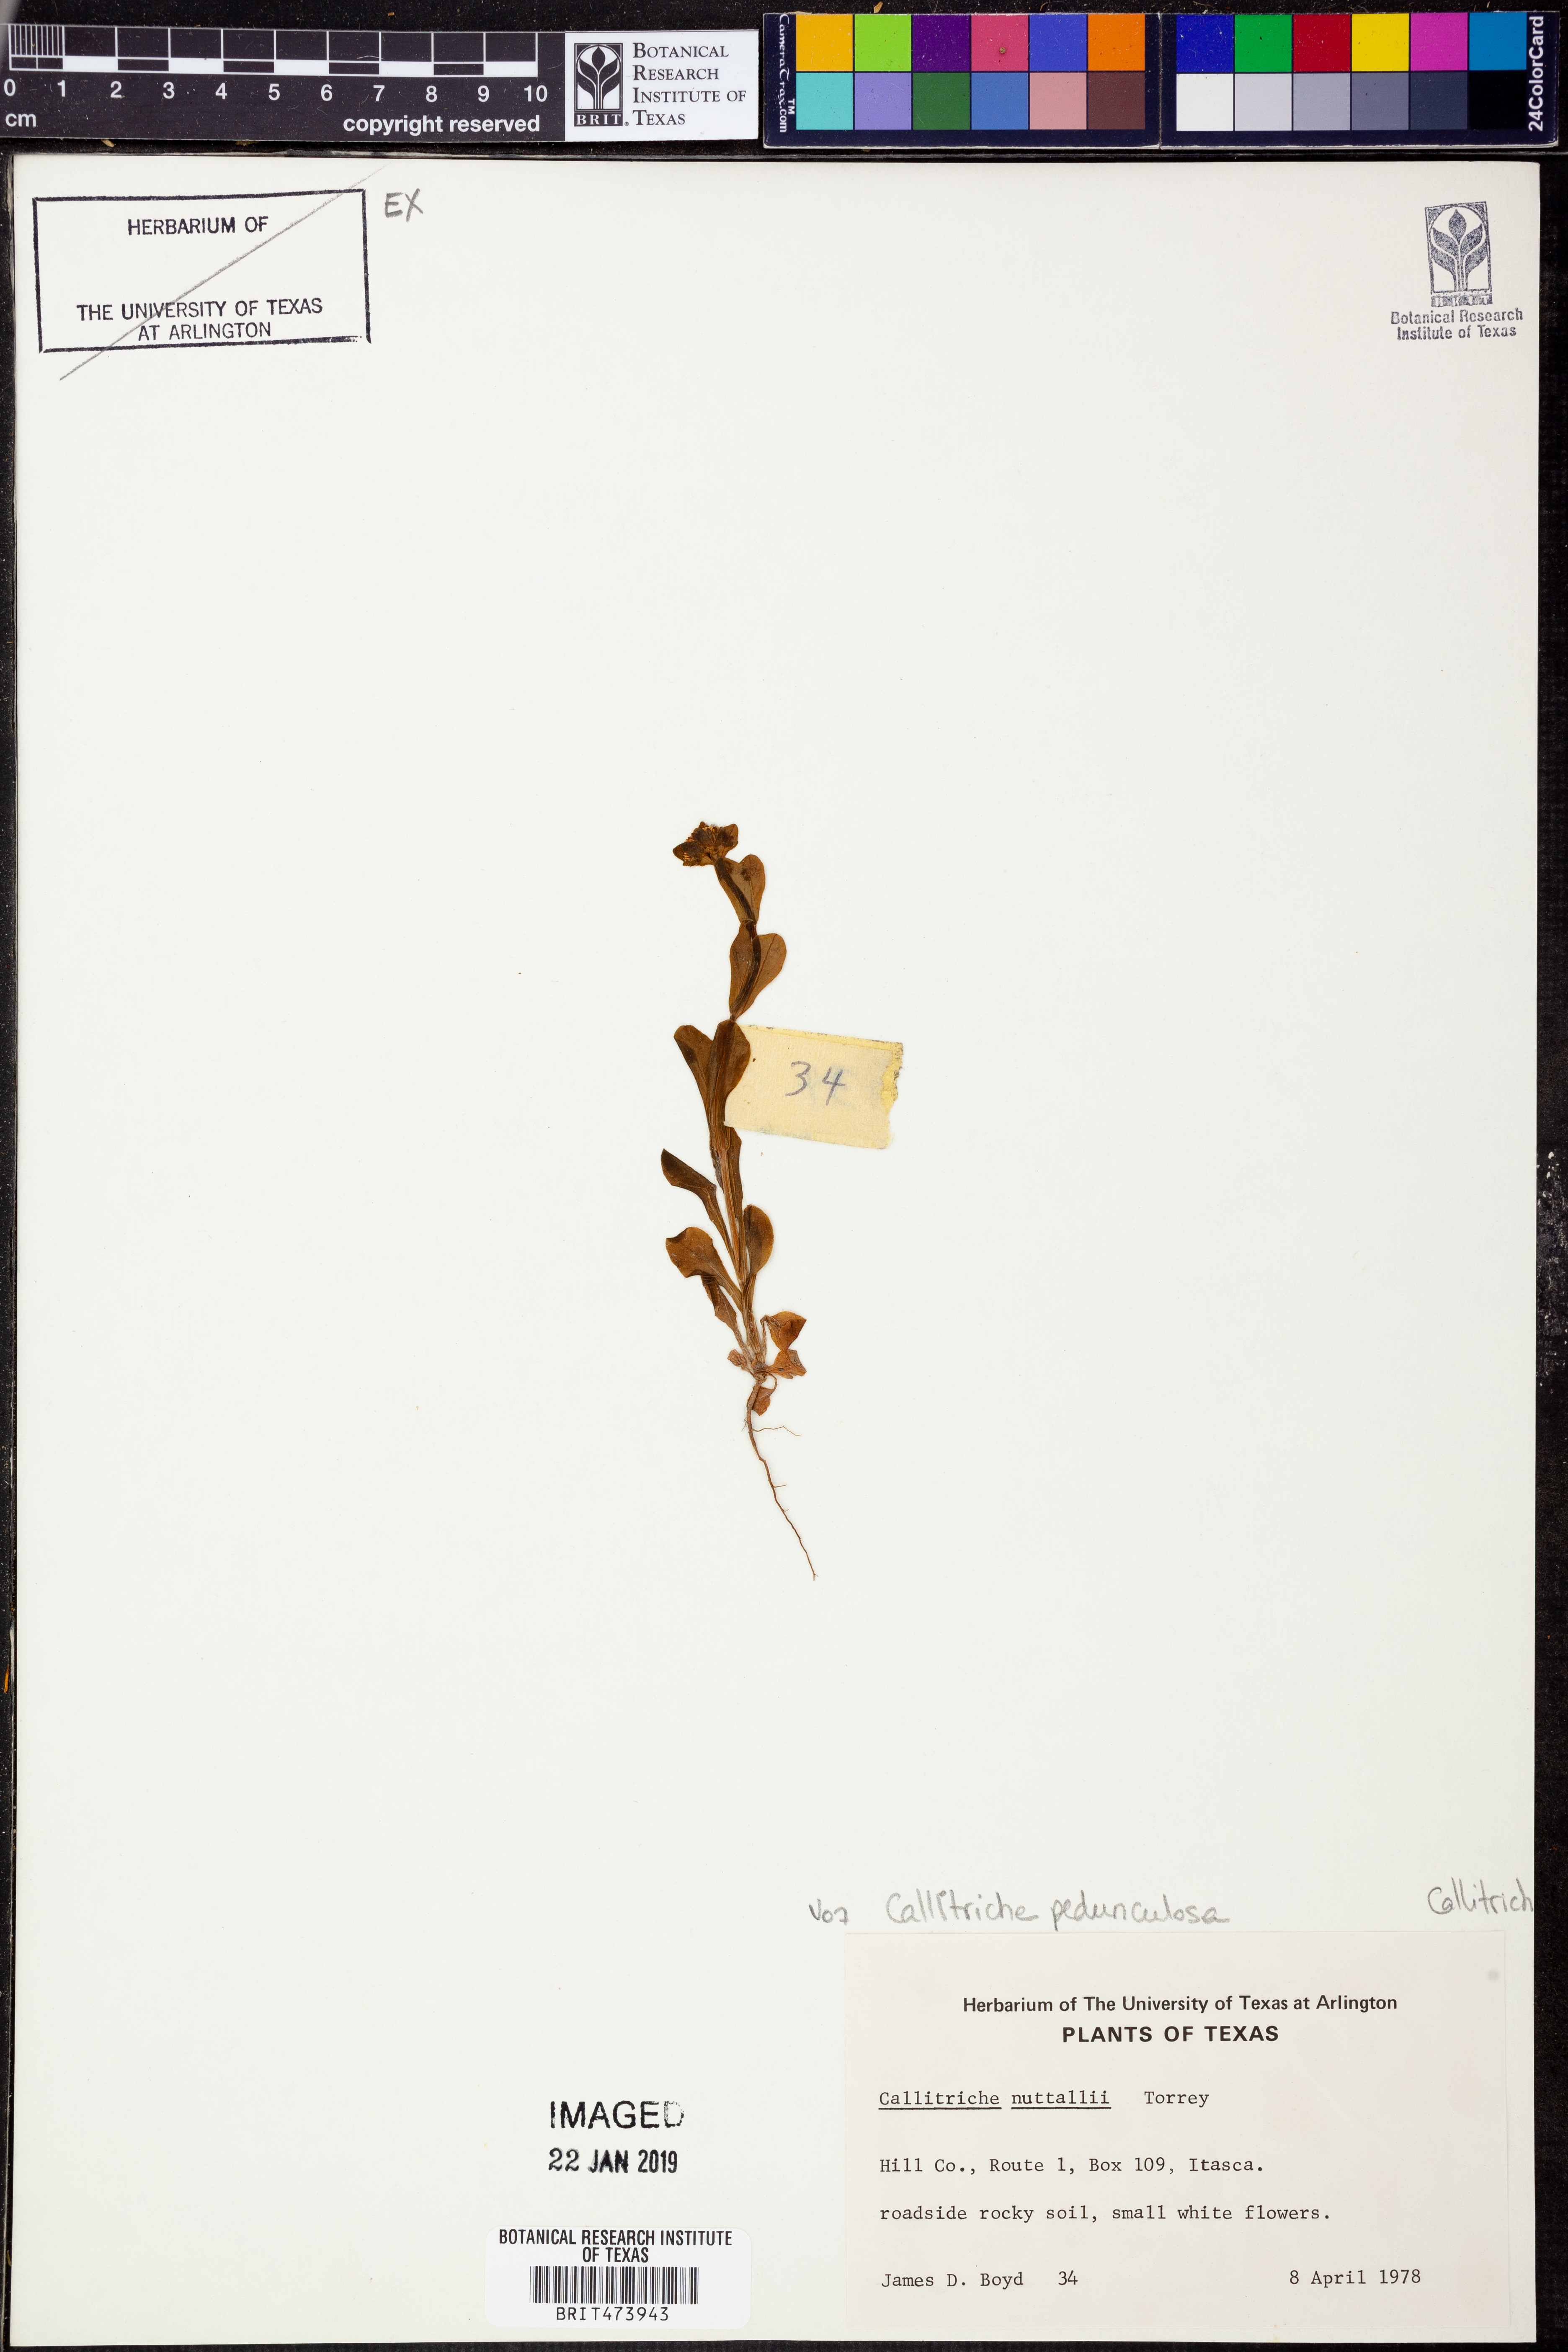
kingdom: Plantae
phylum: Tracheophyta
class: Magnoliopsida
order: Lamiales
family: Plantaginaceae
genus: Callitriche
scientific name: Callitriche pedunculosa
